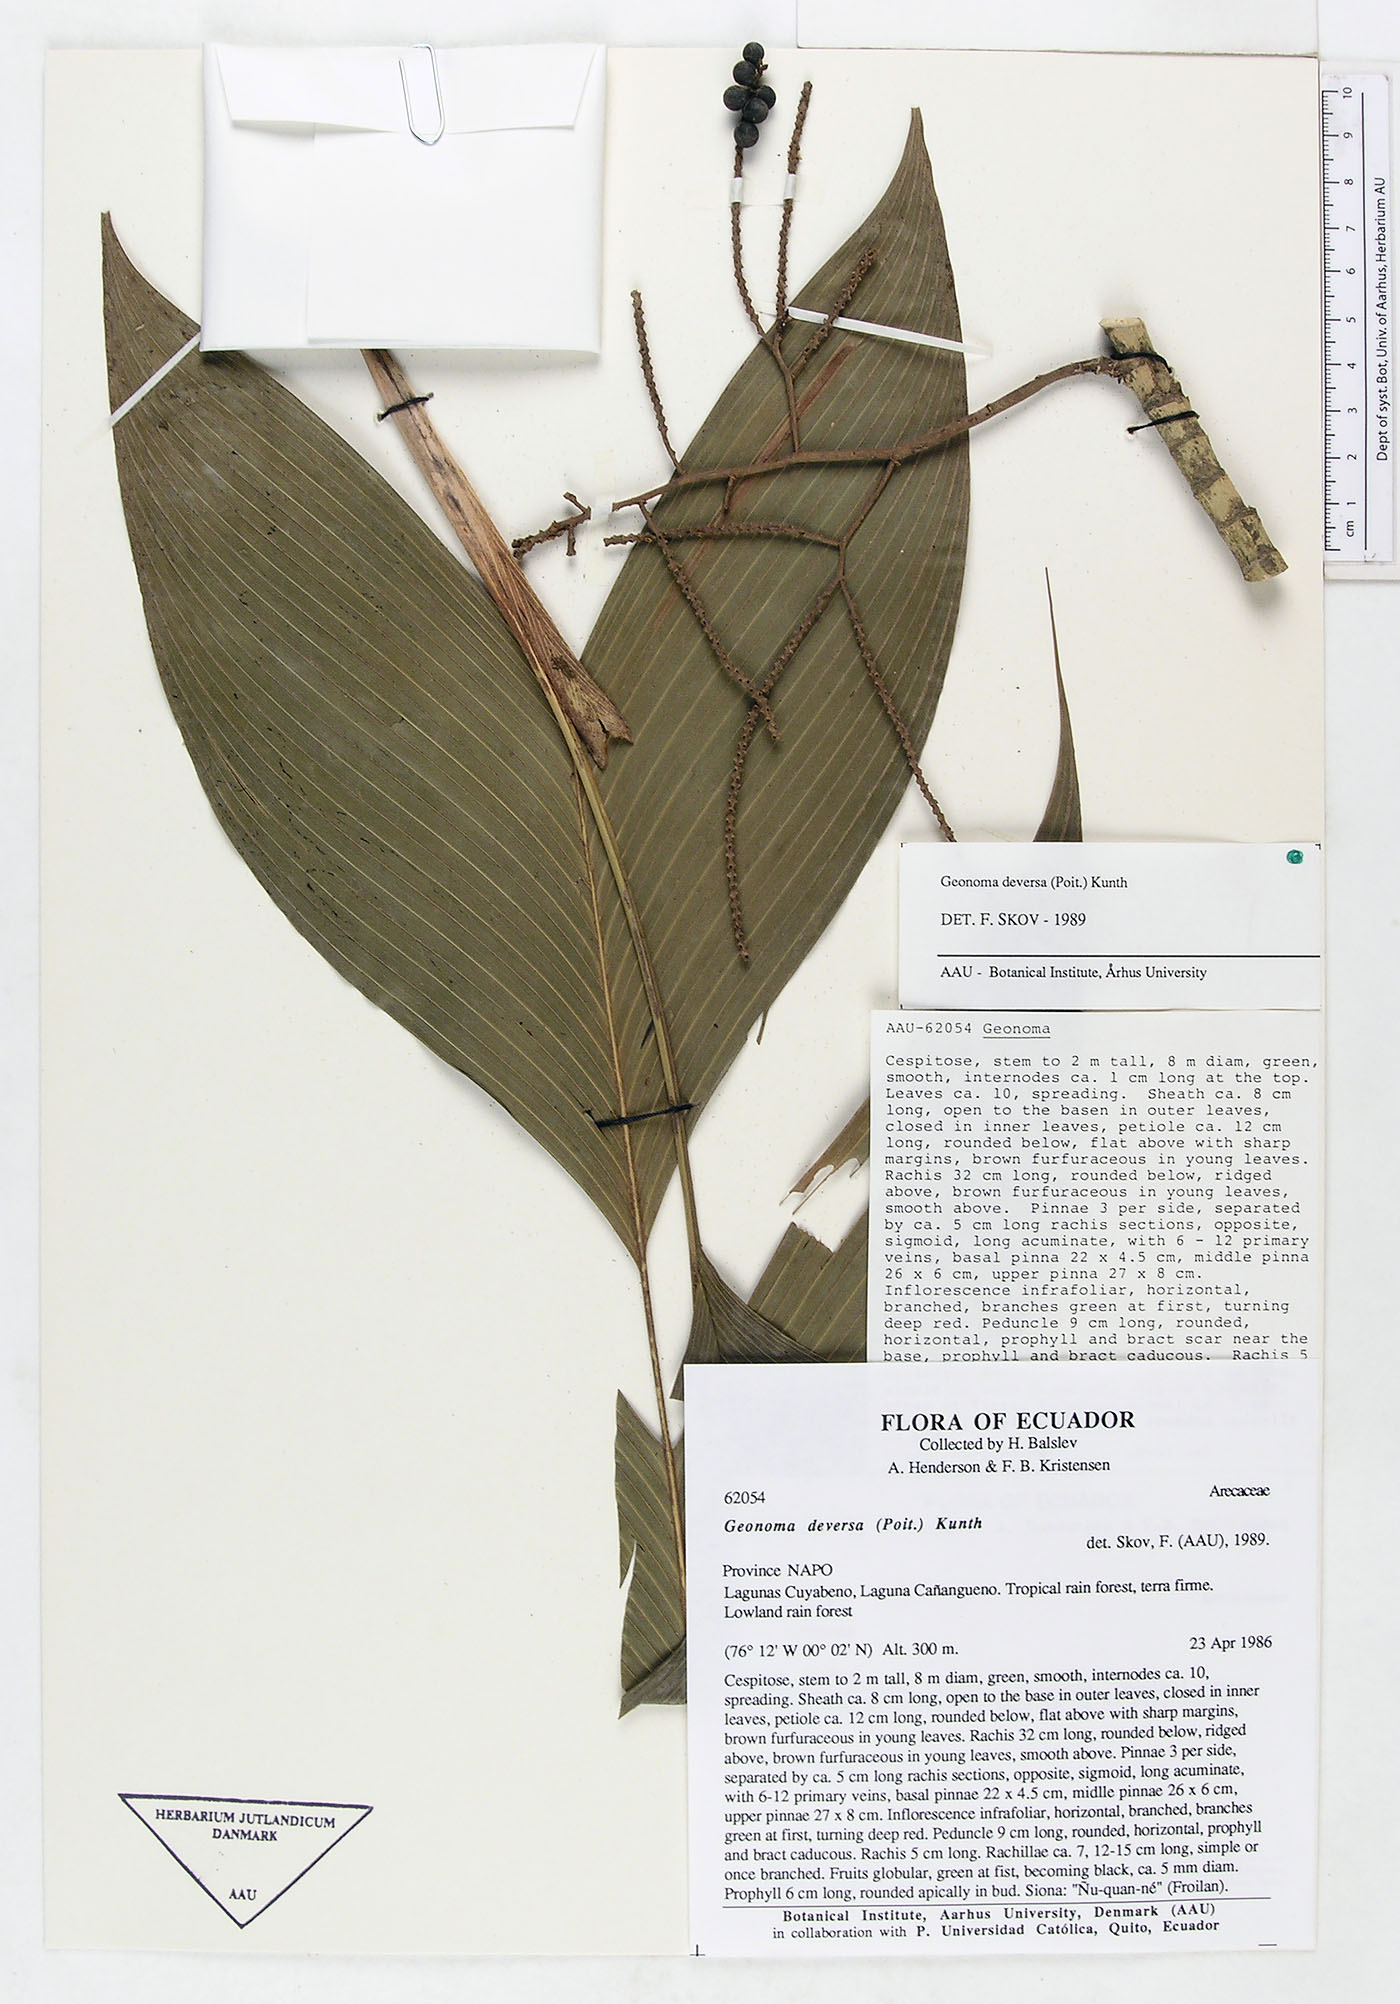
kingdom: Plantae
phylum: Tracheophyta
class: Liliopsida
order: Arecales
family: Arecaceae
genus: Geonoma
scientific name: Geonoma deversa
